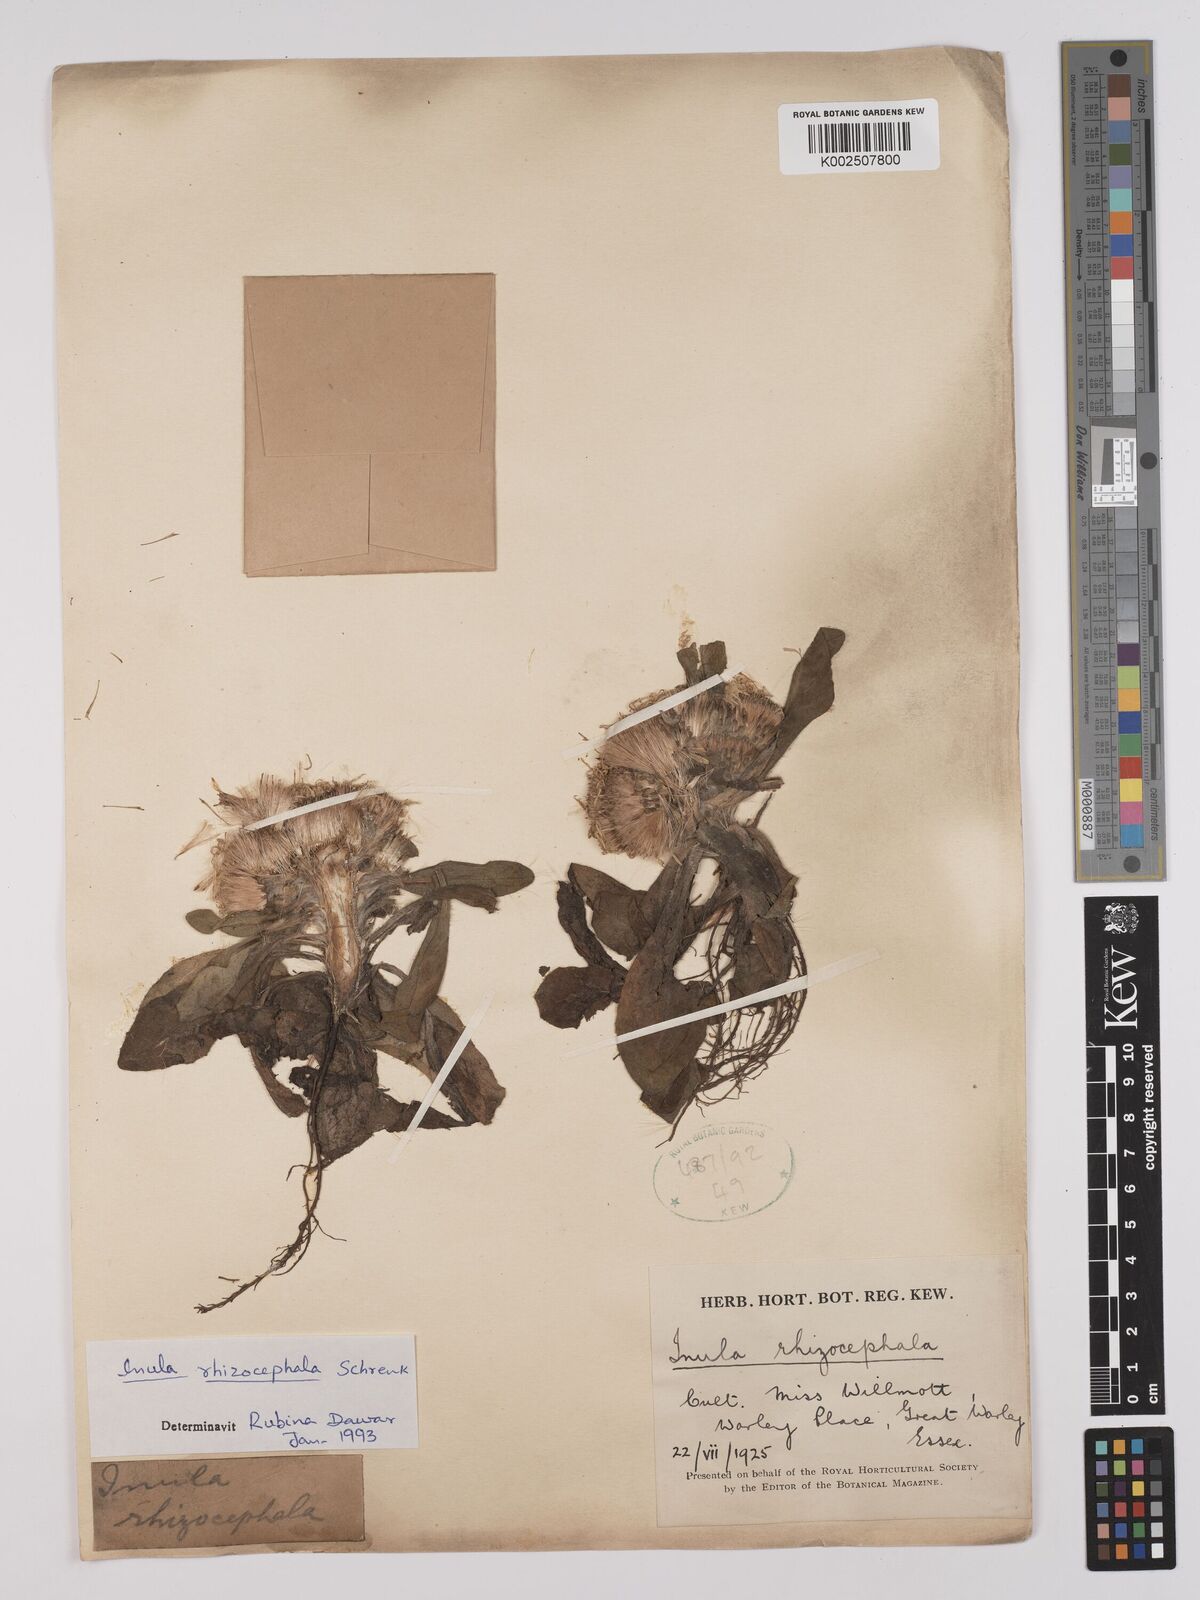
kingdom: Plantae
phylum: Tracheophyta
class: Magnoliopsida
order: Asterales
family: Asteraceae
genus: Inula
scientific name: Inula rhizocephala
